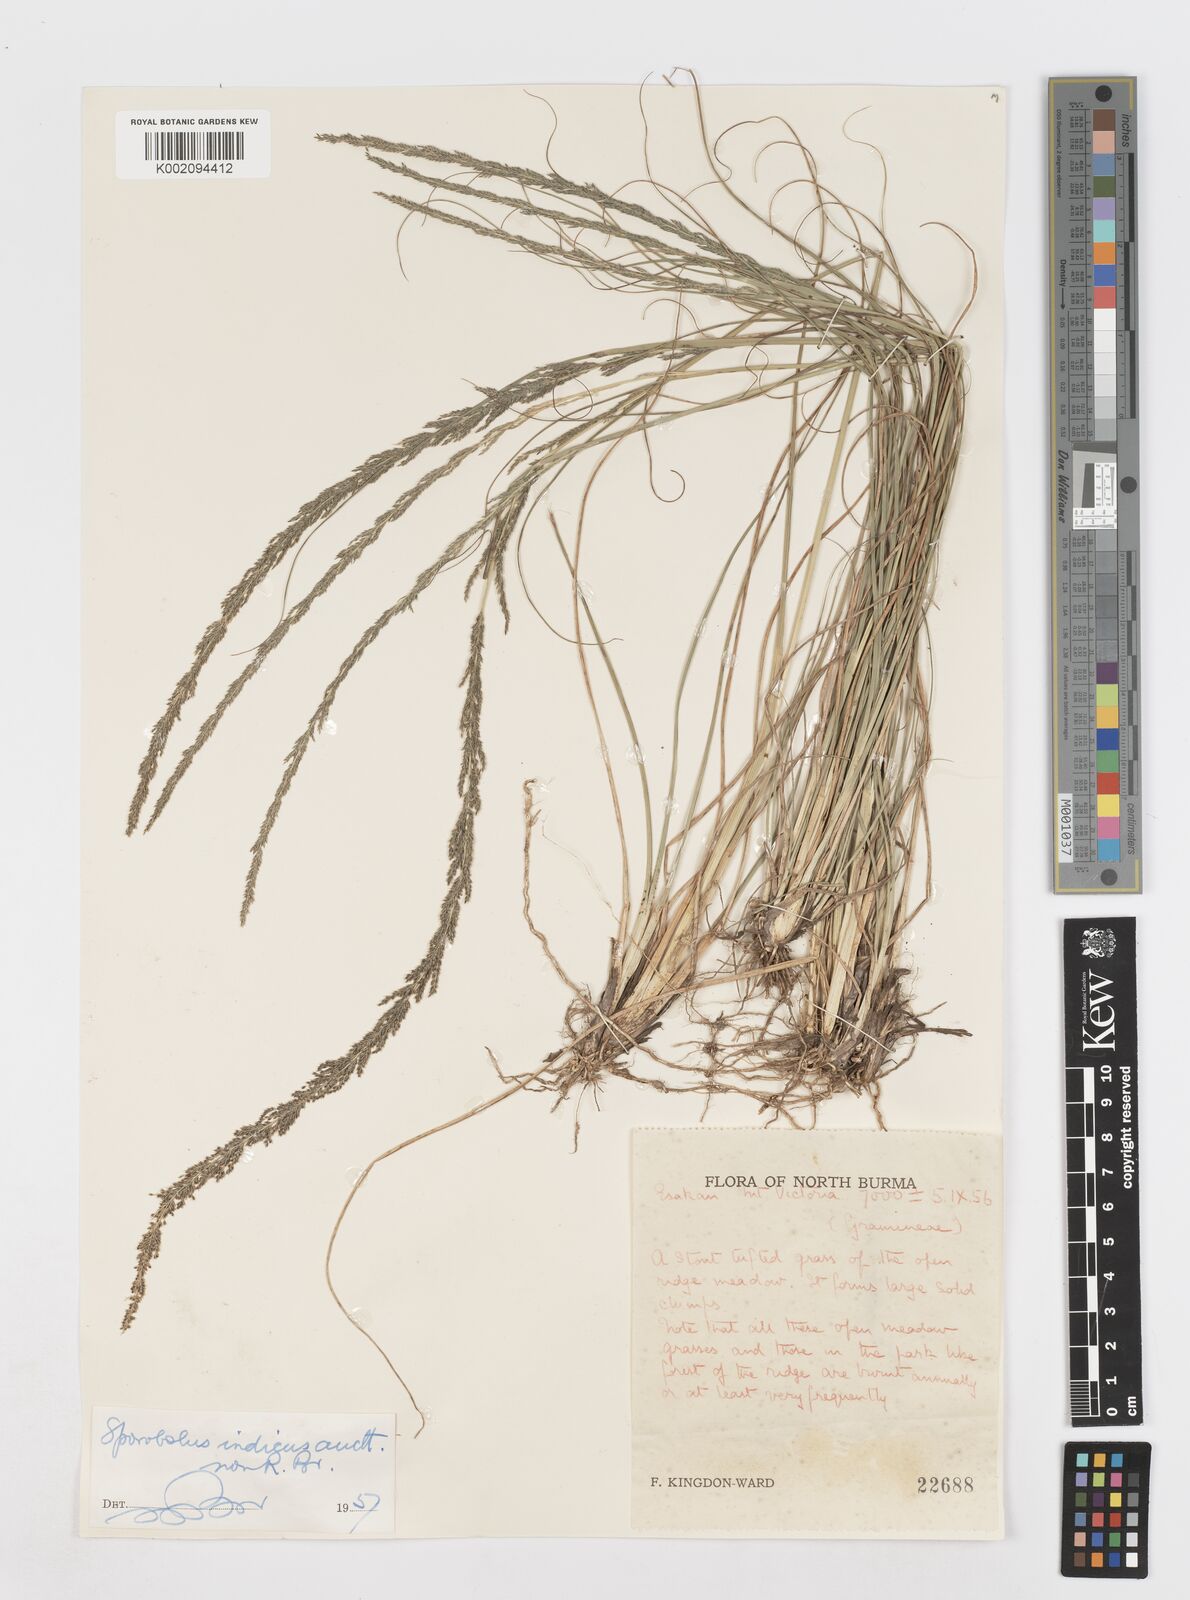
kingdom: Plantae
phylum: Tracheophyta
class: Liliopsida
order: Poales
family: Poaceae
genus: Sporobolus
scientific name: Sporobolus fertilis
